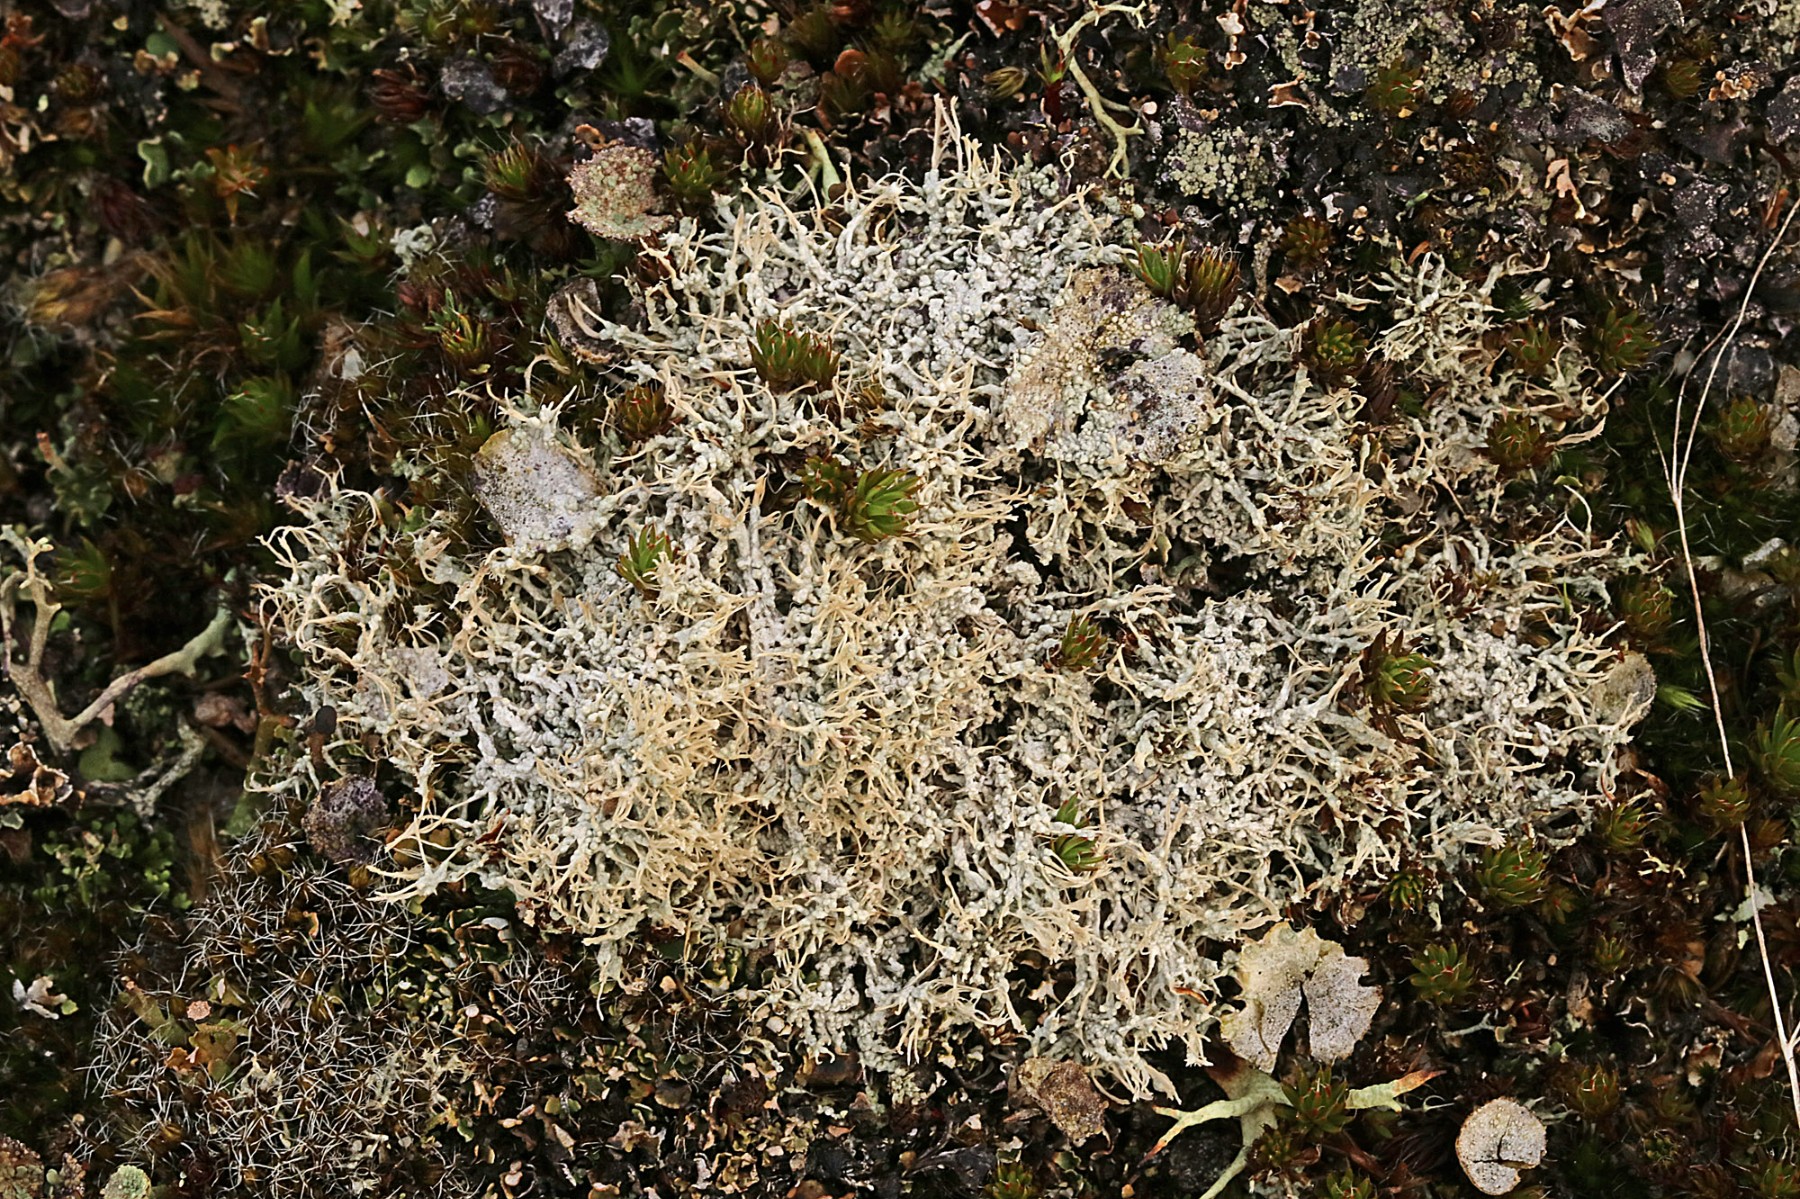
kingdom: Fungi
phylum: Ascomycota
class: Lecanoromycetes
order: Pertusariales
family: Ochrolechiaceae
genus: Ochrolechia
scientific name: Ochrolechia frigida
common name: fjeld-blegskivelav
